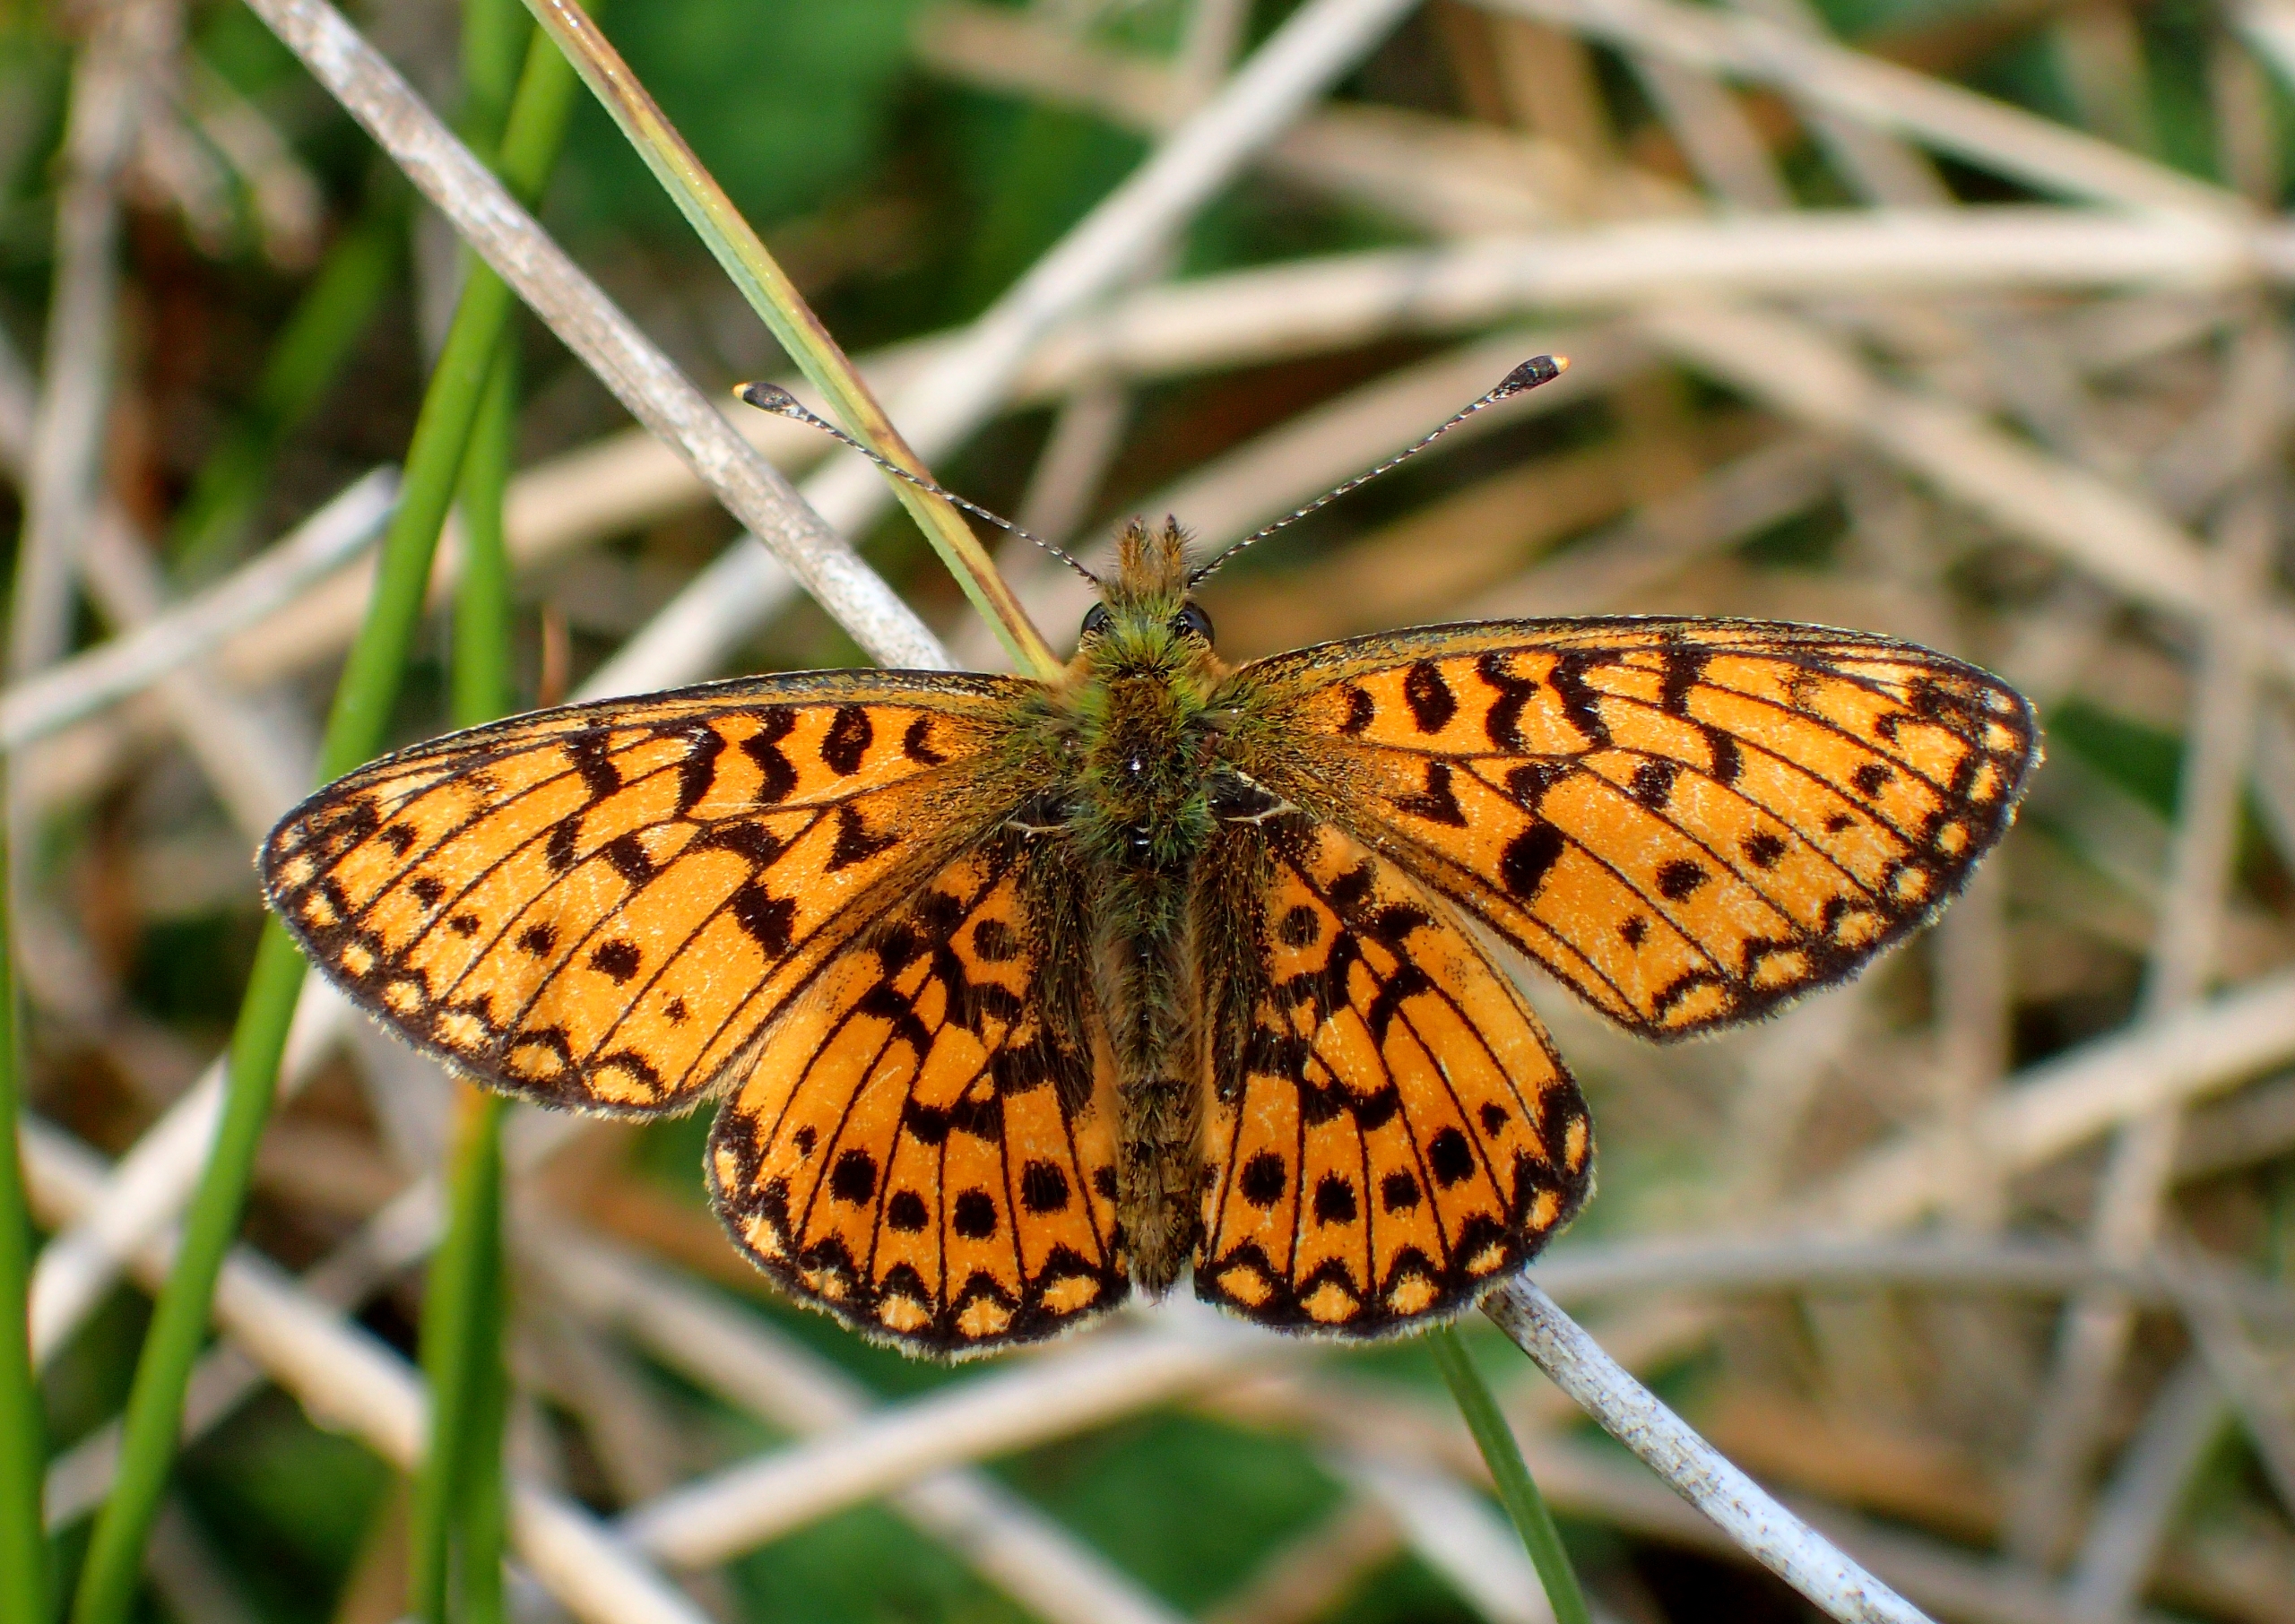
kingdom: Animalia
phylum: Arthropoda
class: Insecta
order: Lepidoptera
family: Nymphalidae
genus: Boloria
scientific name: Boloria selene
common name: Brunlig perlemorsommerfugl
